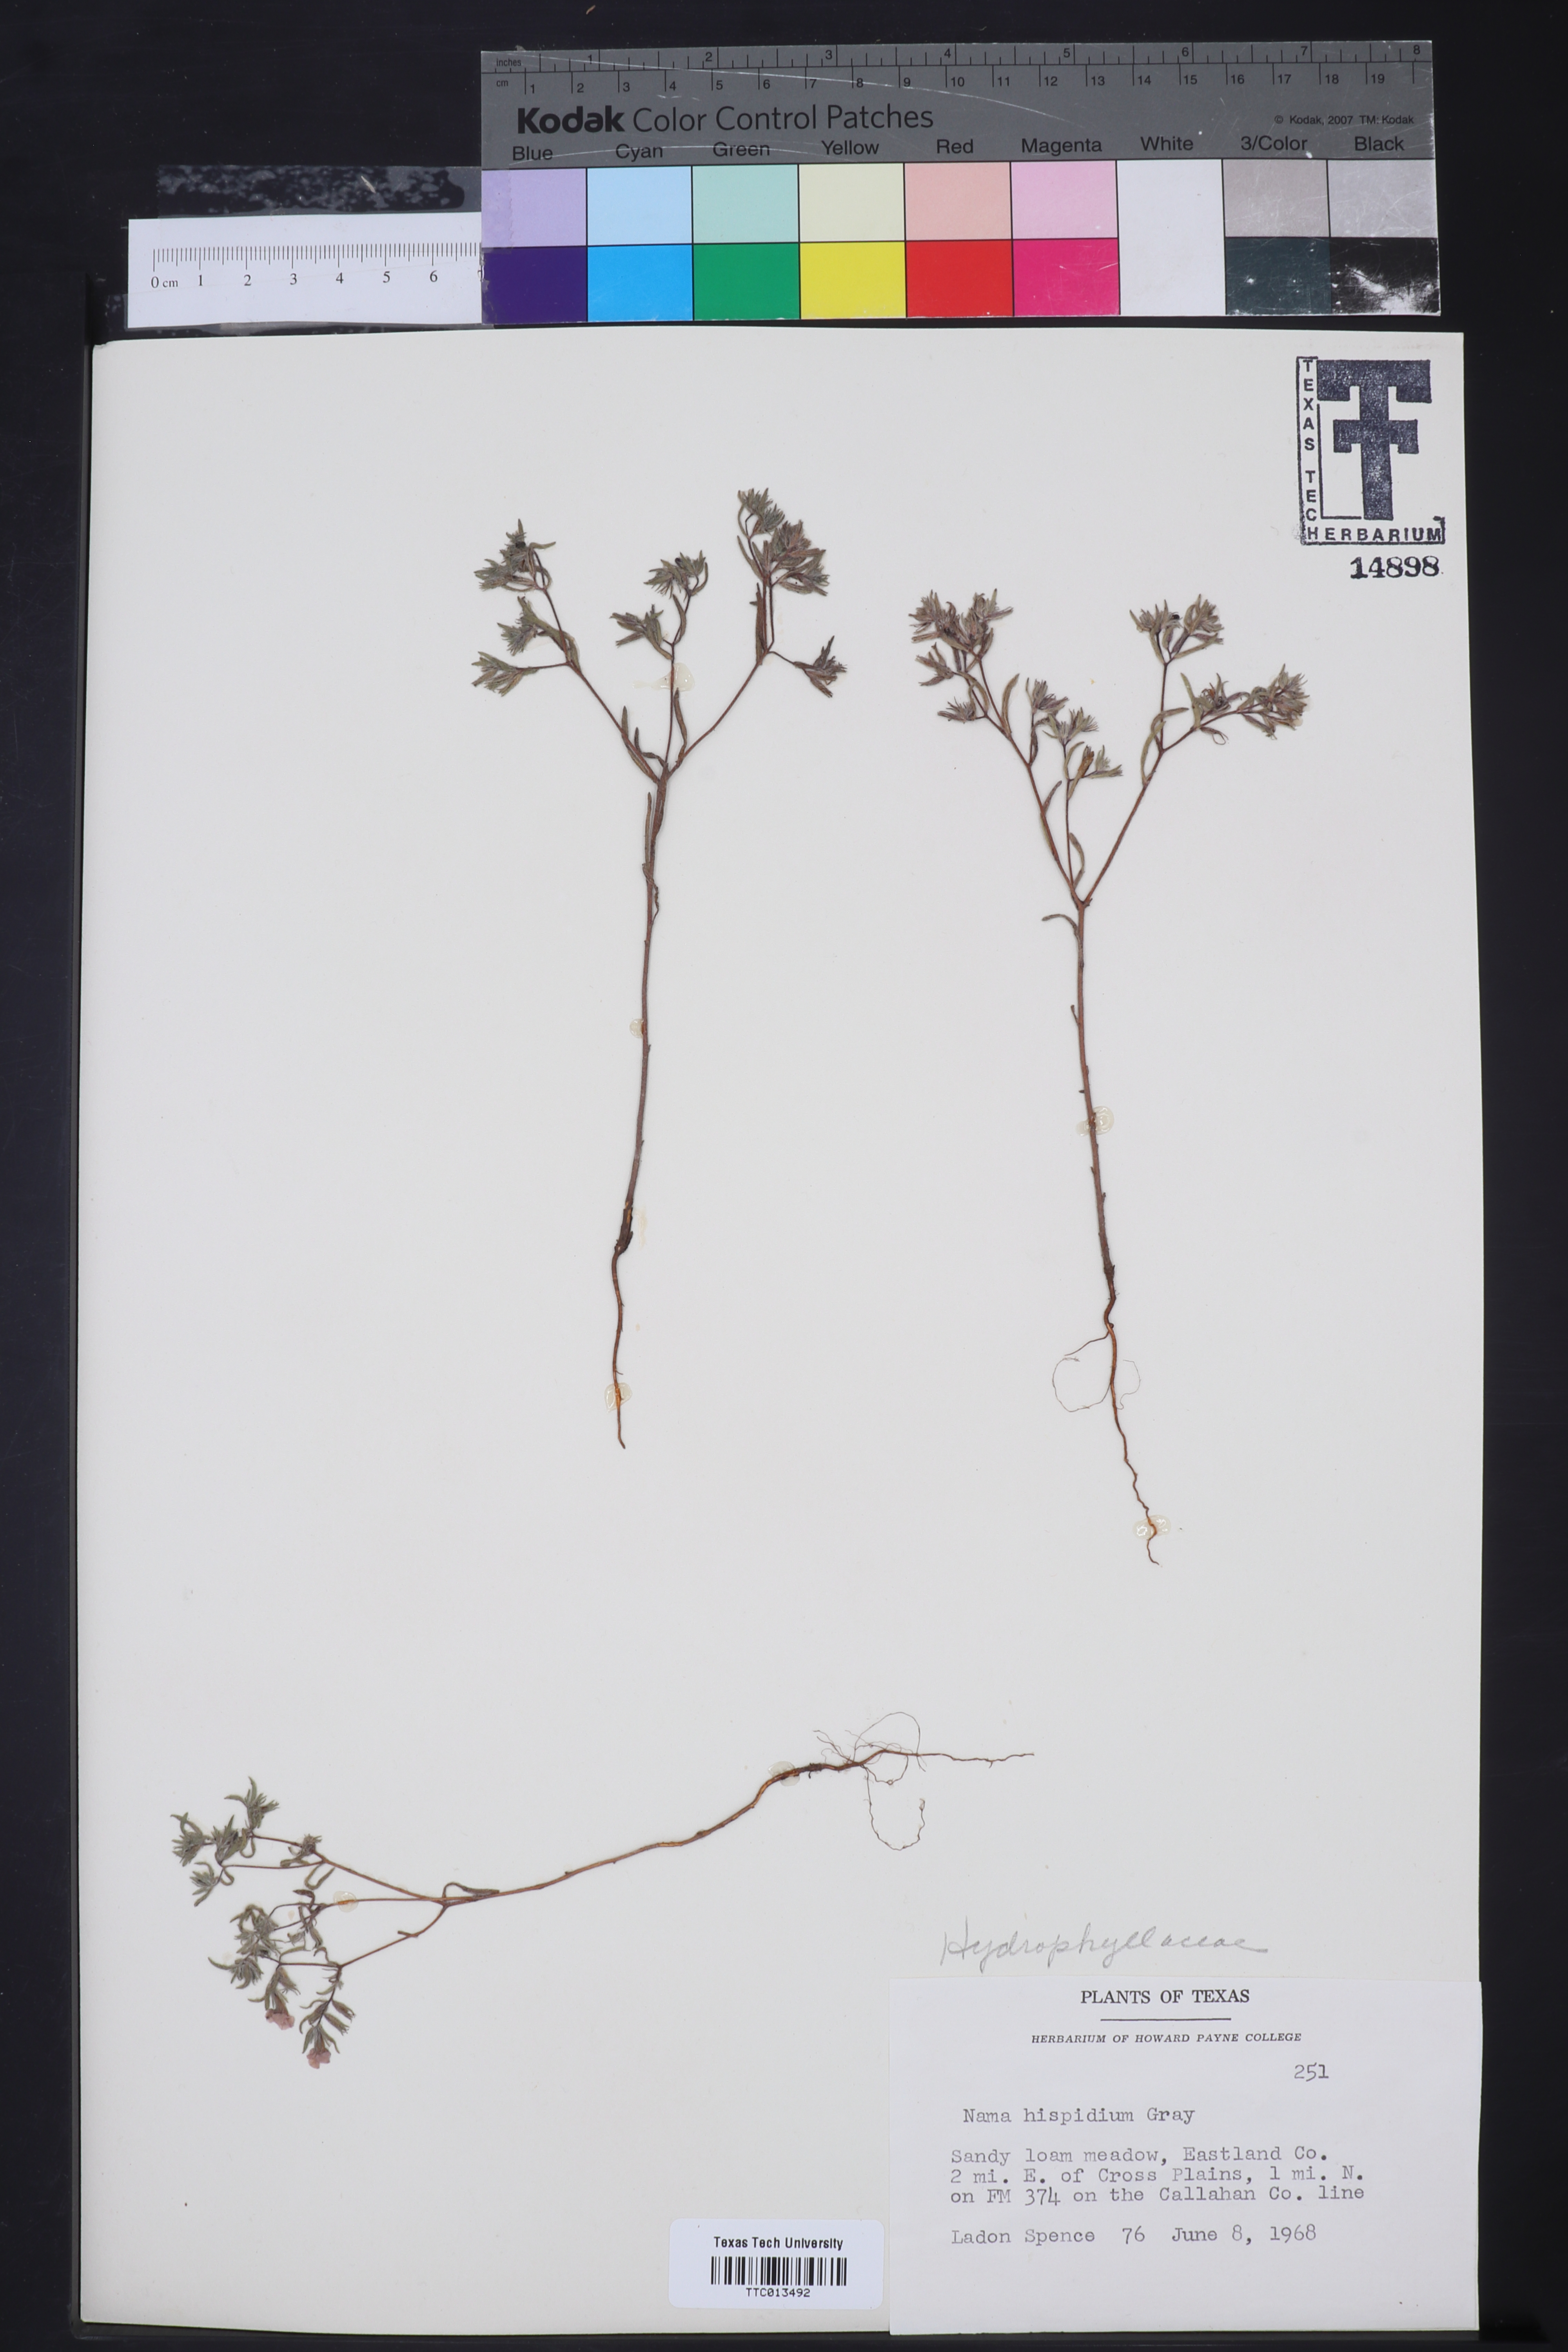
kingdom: Plantae
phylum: Tracheophyta
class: Magnoliopsida
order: Boraginales
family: Namaceae
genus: Nama
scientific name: Nama hispida
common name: Bristly nama
